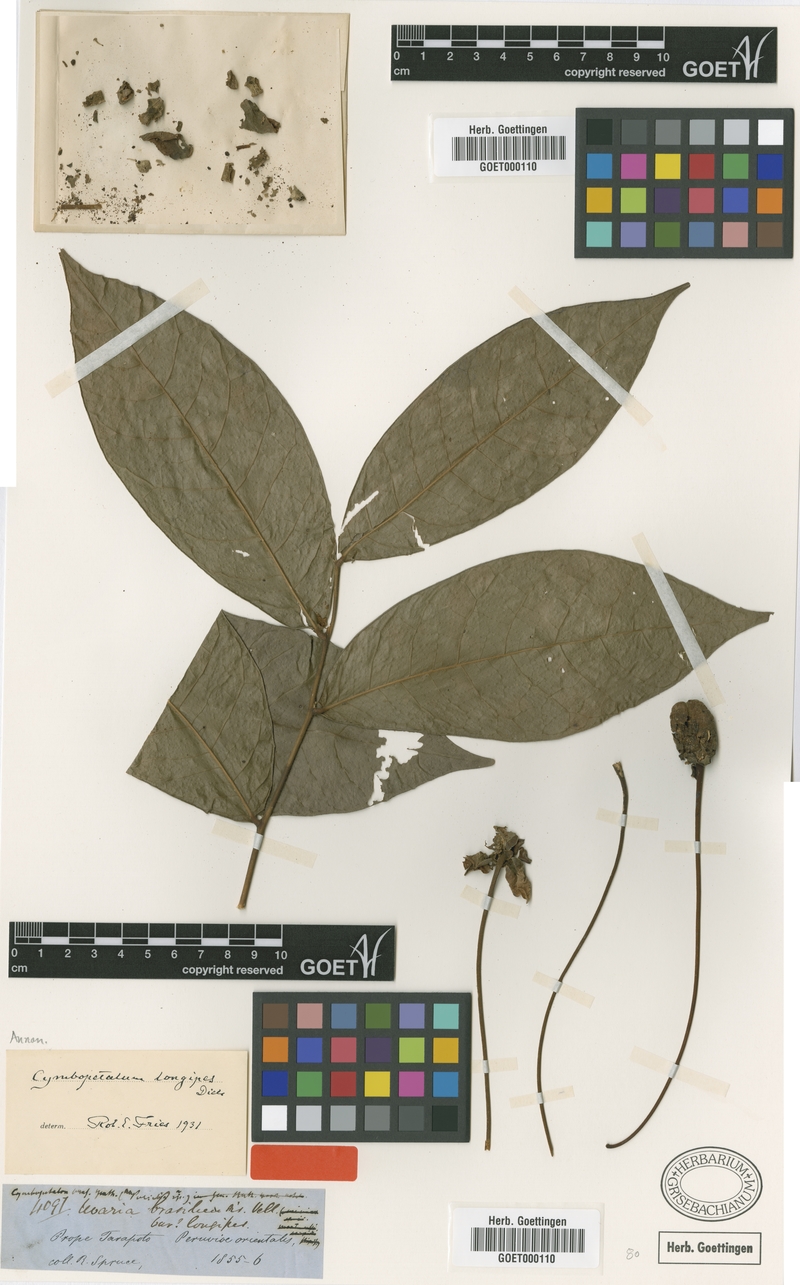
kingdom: Plantae
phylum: Tracheophyta
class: Magnoliopsida
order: Magnoliales
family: Annonaceae
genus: Cymbopetalum
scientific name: Cymbopetalum longipes
